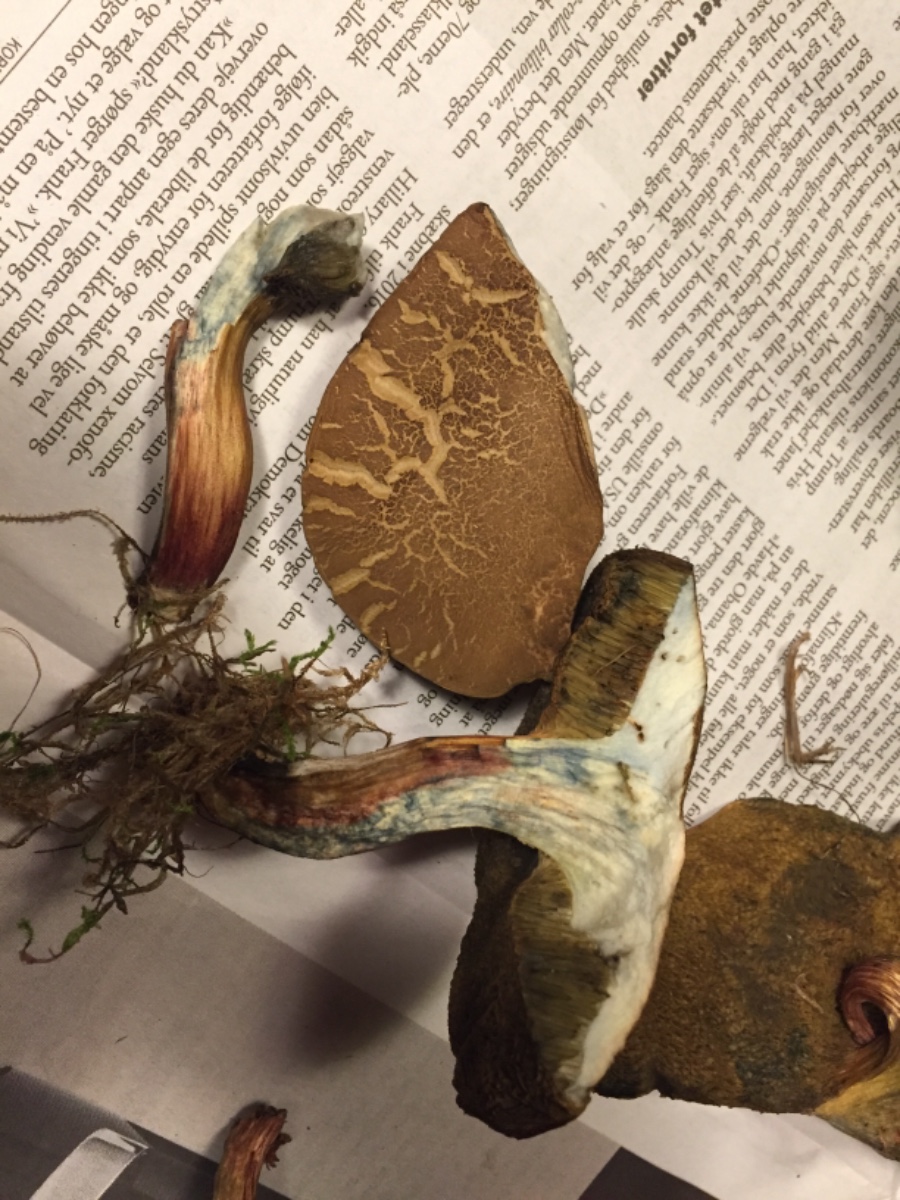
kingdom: Fungi
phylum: Basidiomycota
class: Agaricomycetes
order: Boletales
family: Boletaceae
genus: Xerocomellus
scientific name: Xerocomellus cisalpinus
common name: finsprukken rørhat
